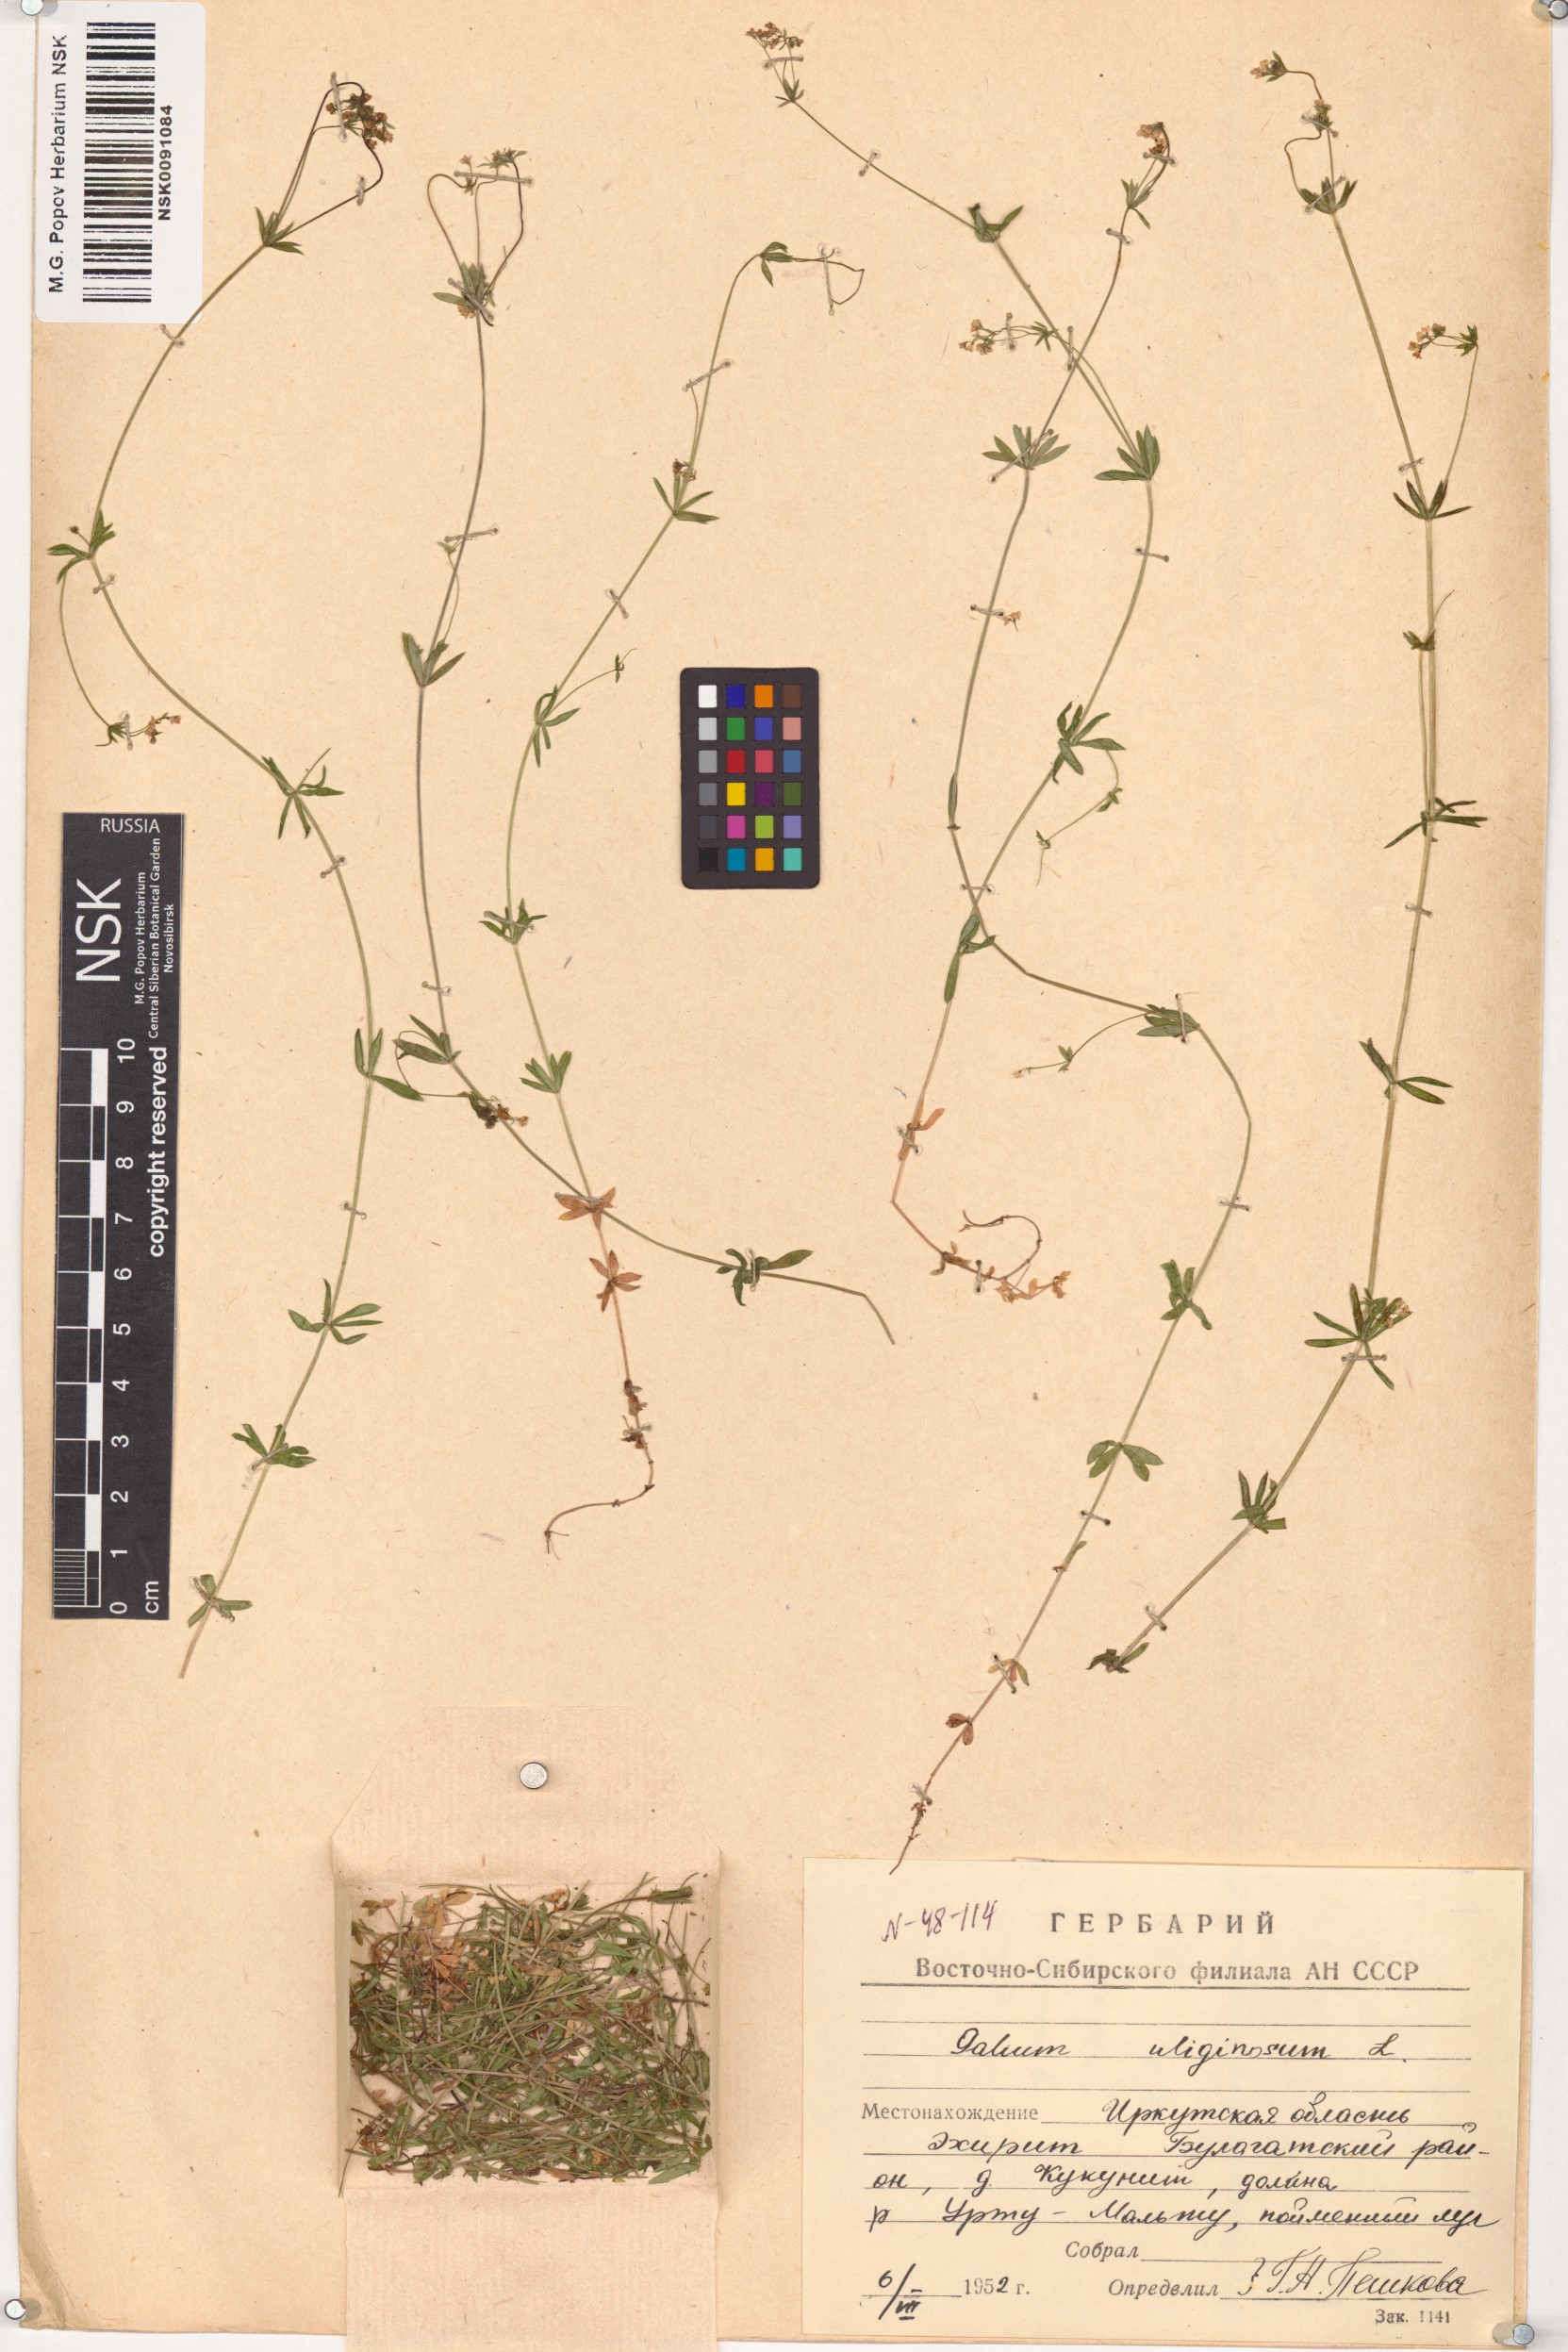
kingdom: Plantae
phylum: Tracheophyta
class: Magnoliopsida
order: Gentianales
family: Rubiaceae
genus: Galium
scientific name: Galium uliginosum
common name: Fen bedstraw
